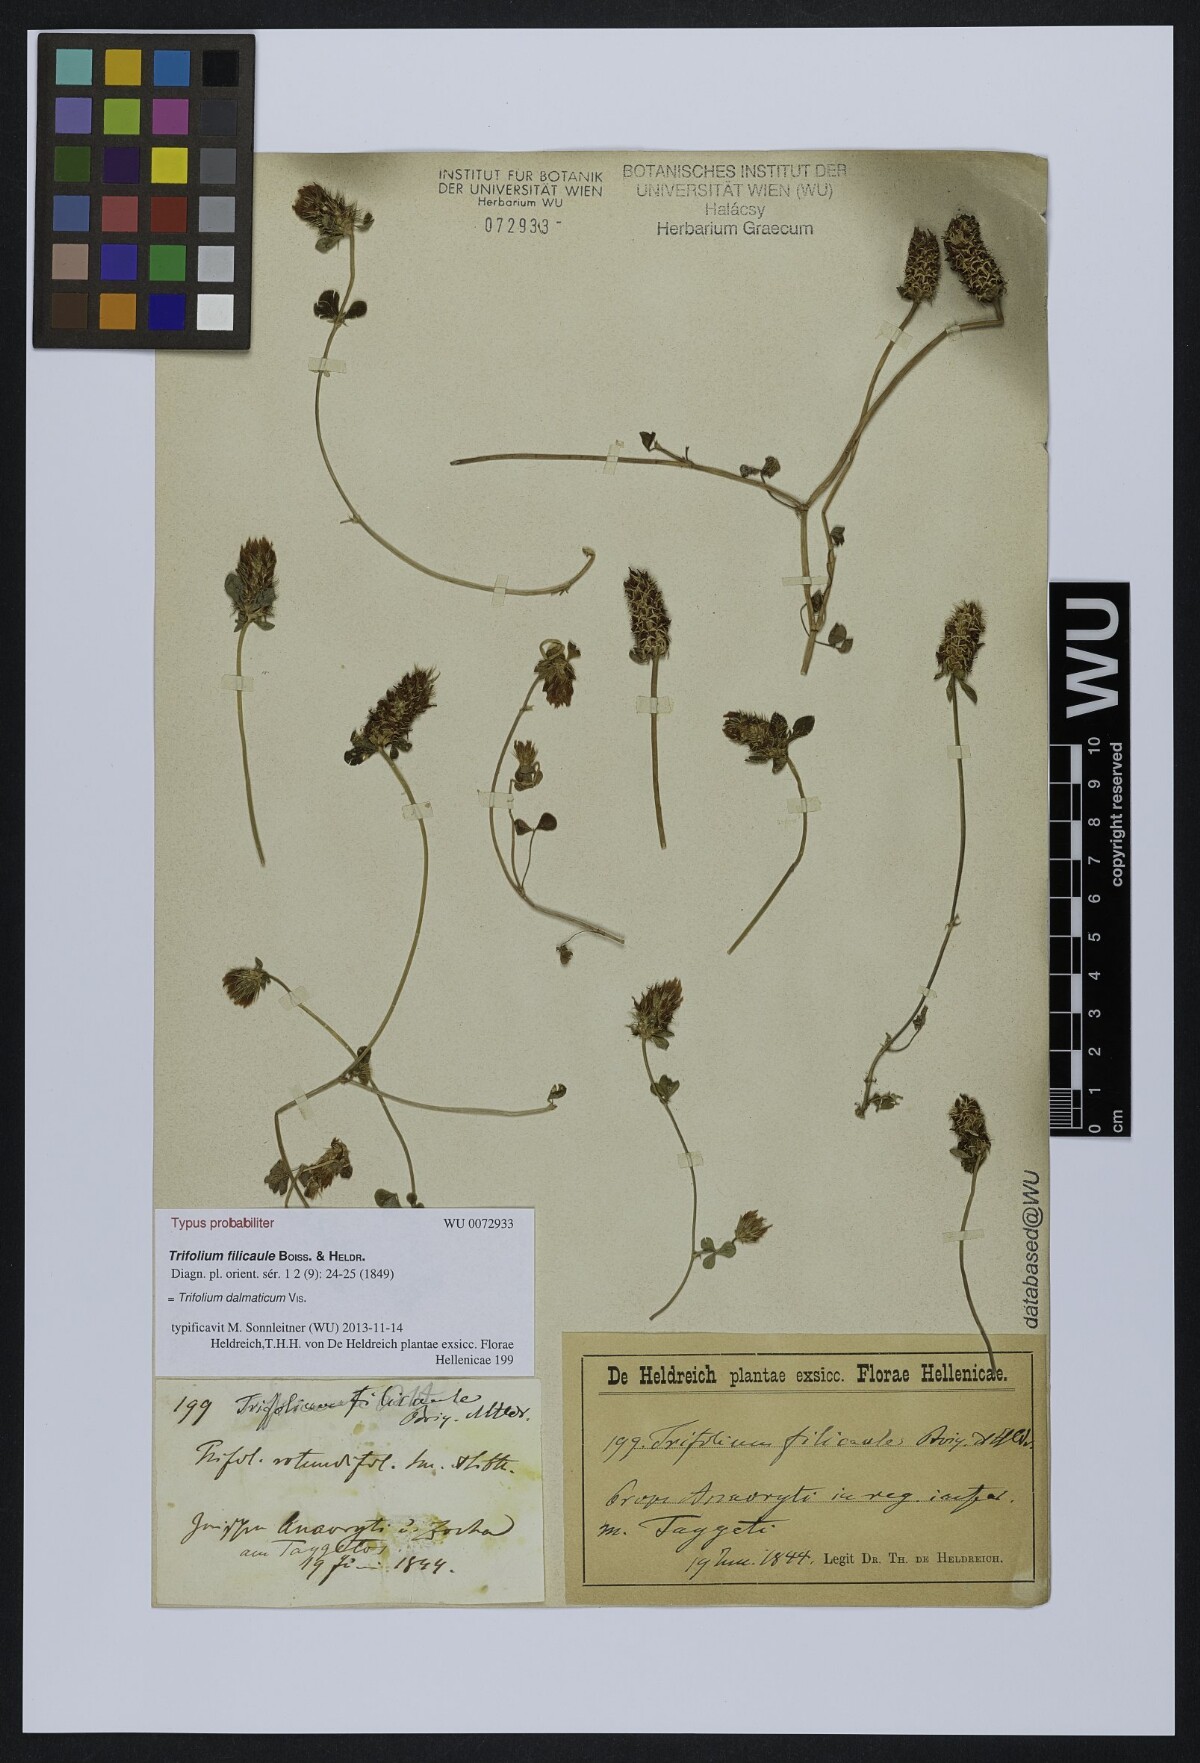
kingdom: Plantae
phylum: Tracheophyta
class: Magnoliopsida
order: Fabales
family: Fabaceae
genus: Trifolium
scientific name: Trifolium dalmaticum
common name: Dalmatian clover
